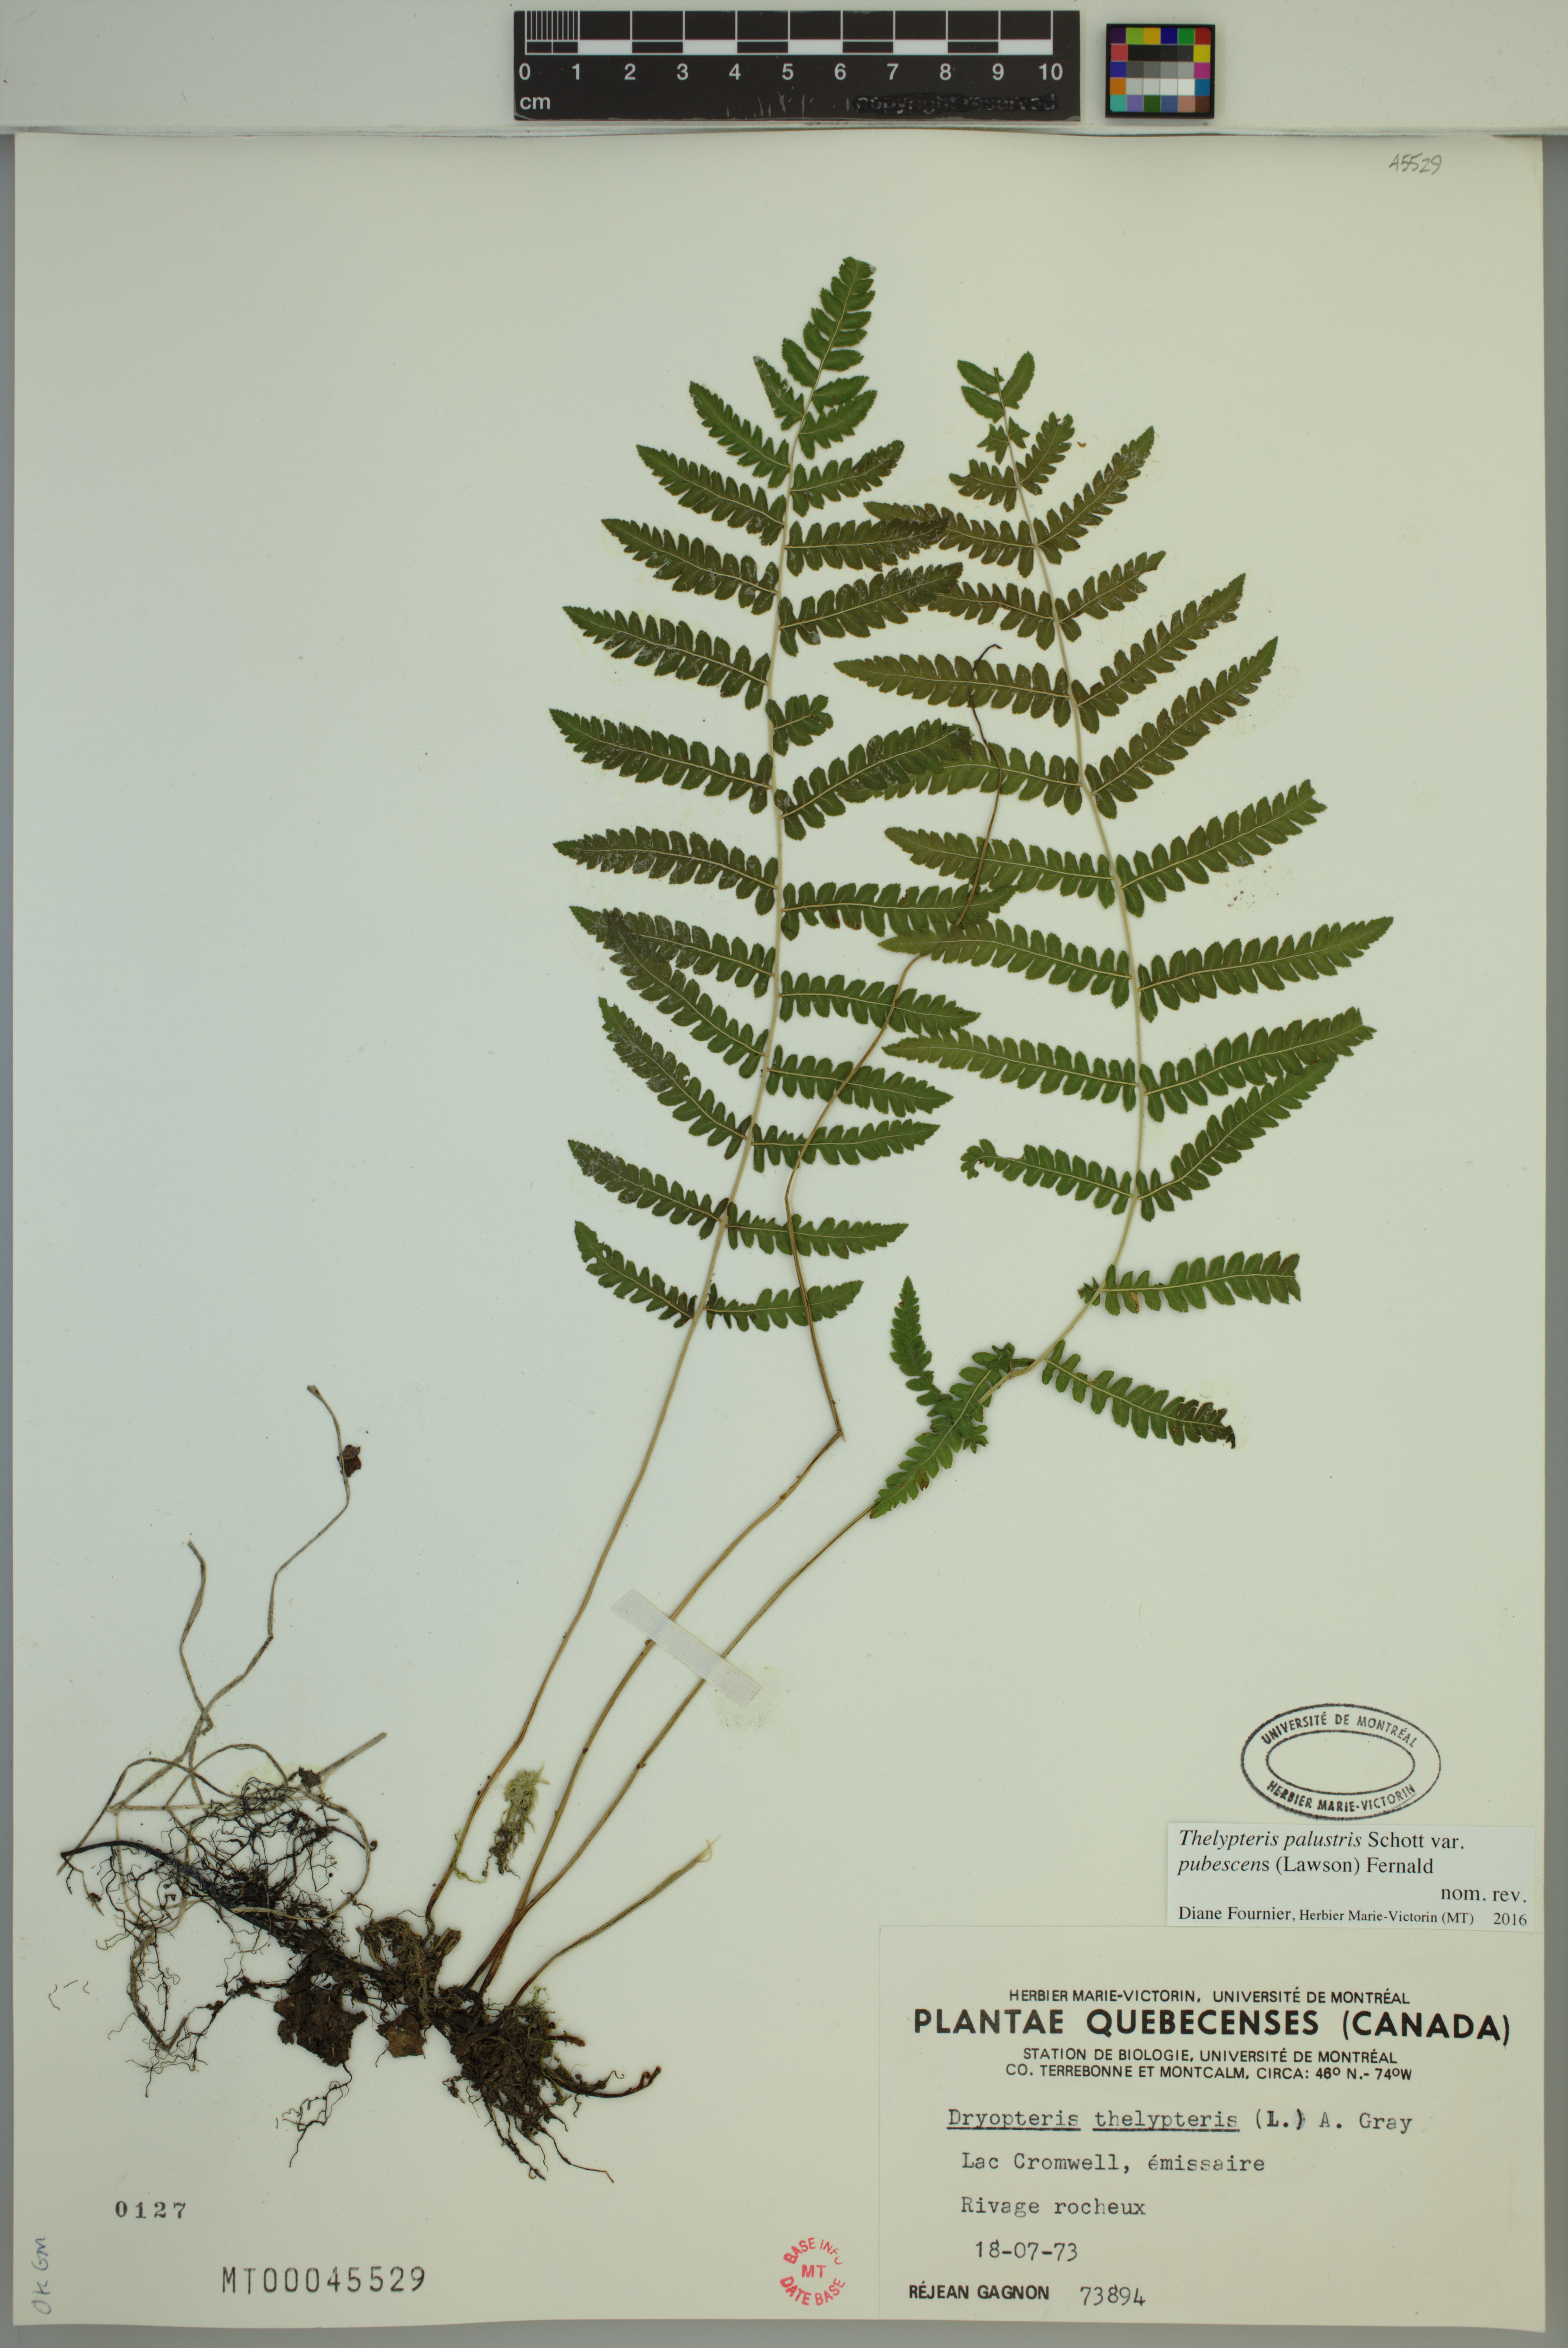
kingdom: Plantae
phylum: Tracheophyta
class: Polypodiopsida
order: Polypodiales
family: Thelypteridaceae
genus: Thelypteris
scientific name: Thelypteris palustris
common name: Marsh fern
